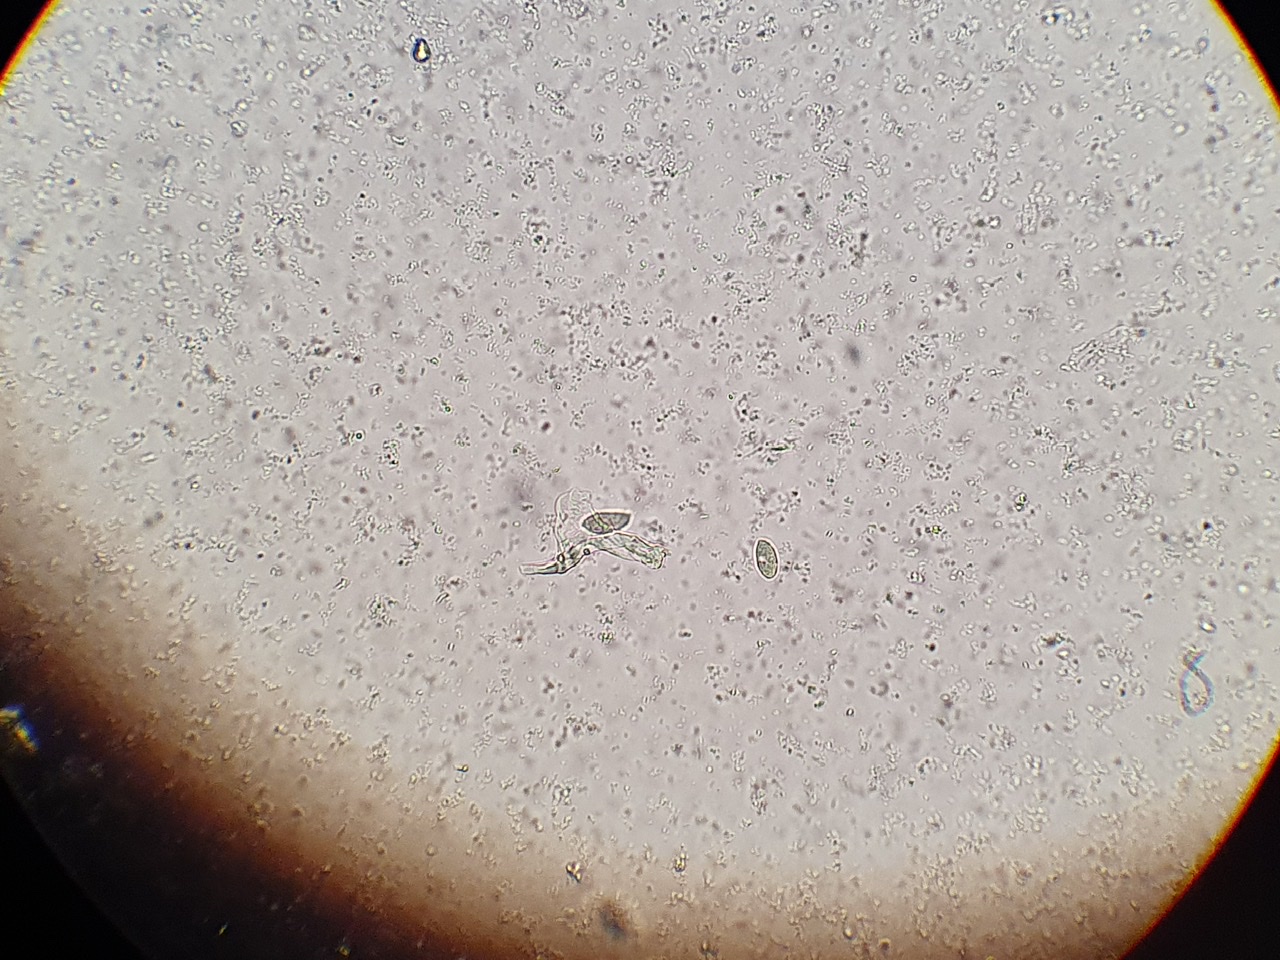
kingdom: Fungi
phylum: Basidiomycota
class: Agaricomycetes
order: Tremellodendropsidales
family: Tremellodendropsidaceae
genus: Tremellodendropsis
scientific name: Tremellodendropsis tuberosa
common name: bævrekølle
